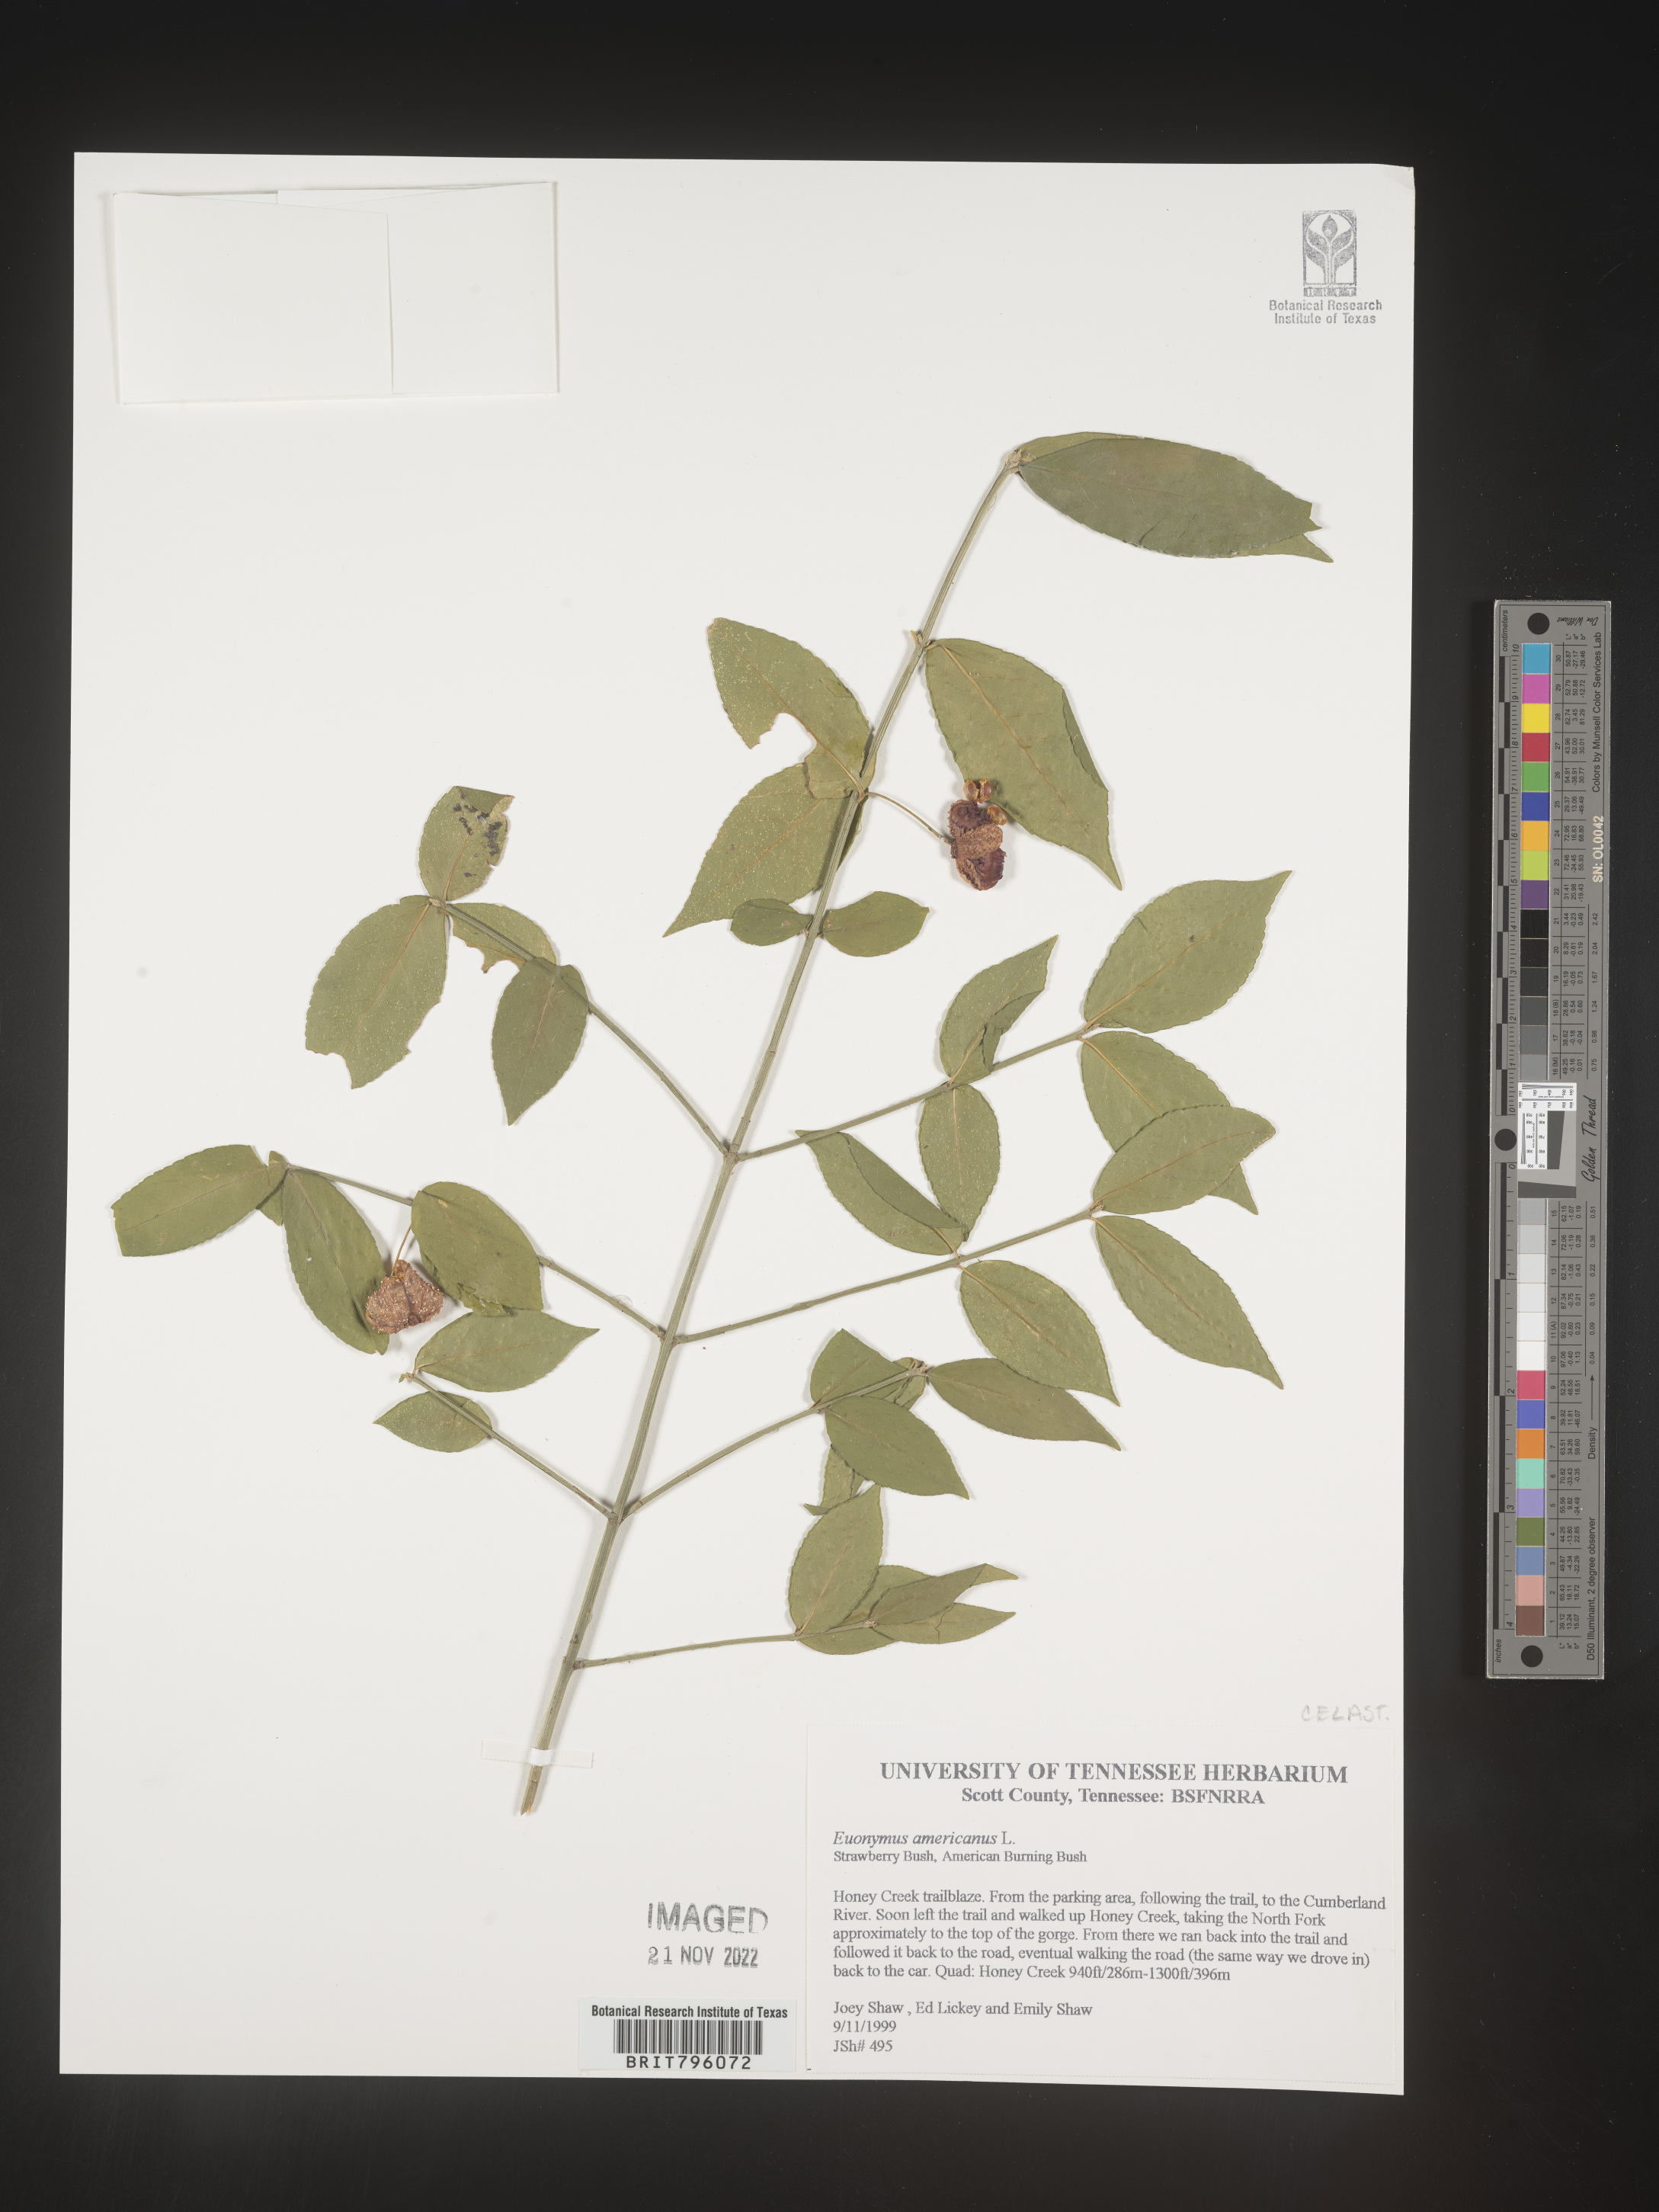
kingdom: Plantae
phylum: Tracheophyta
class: Magnoliopsida
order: Celastrales
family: Celastraceae
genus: Euonymus
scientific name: Euonymus americanus
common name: Bursting-heart
